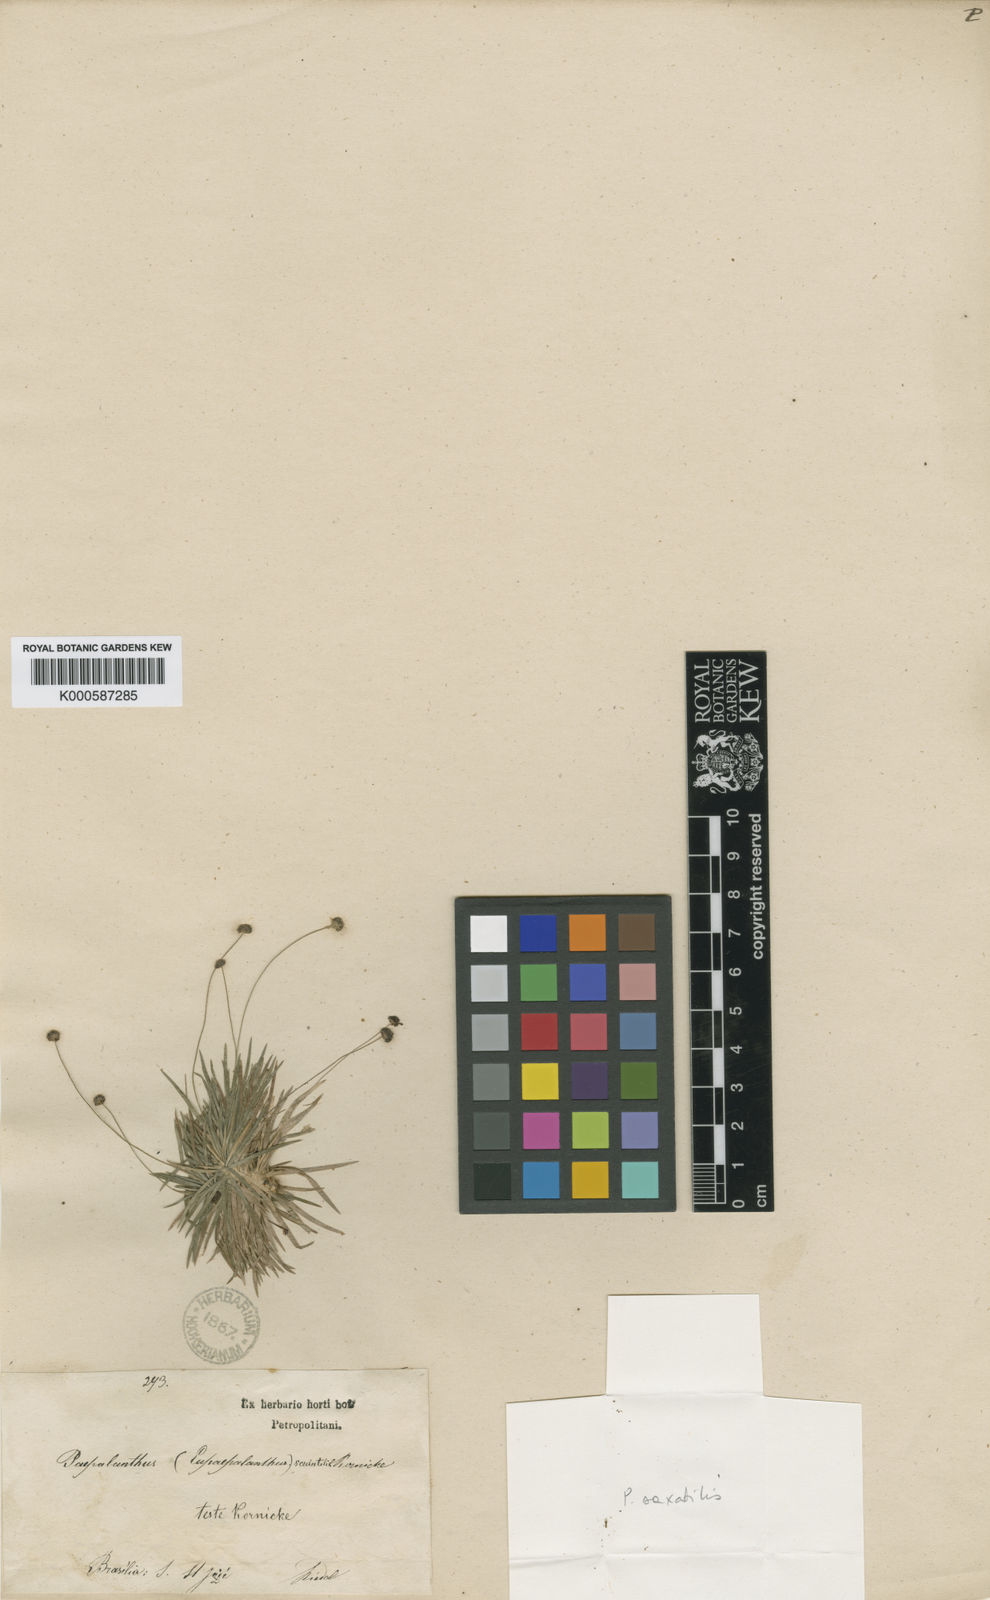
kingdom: Plantae
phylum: Tracheophyta
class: Liliopsida
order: Poales
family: Eriocaulaceae
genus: Paepalanthus
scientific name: Paepalanthus
